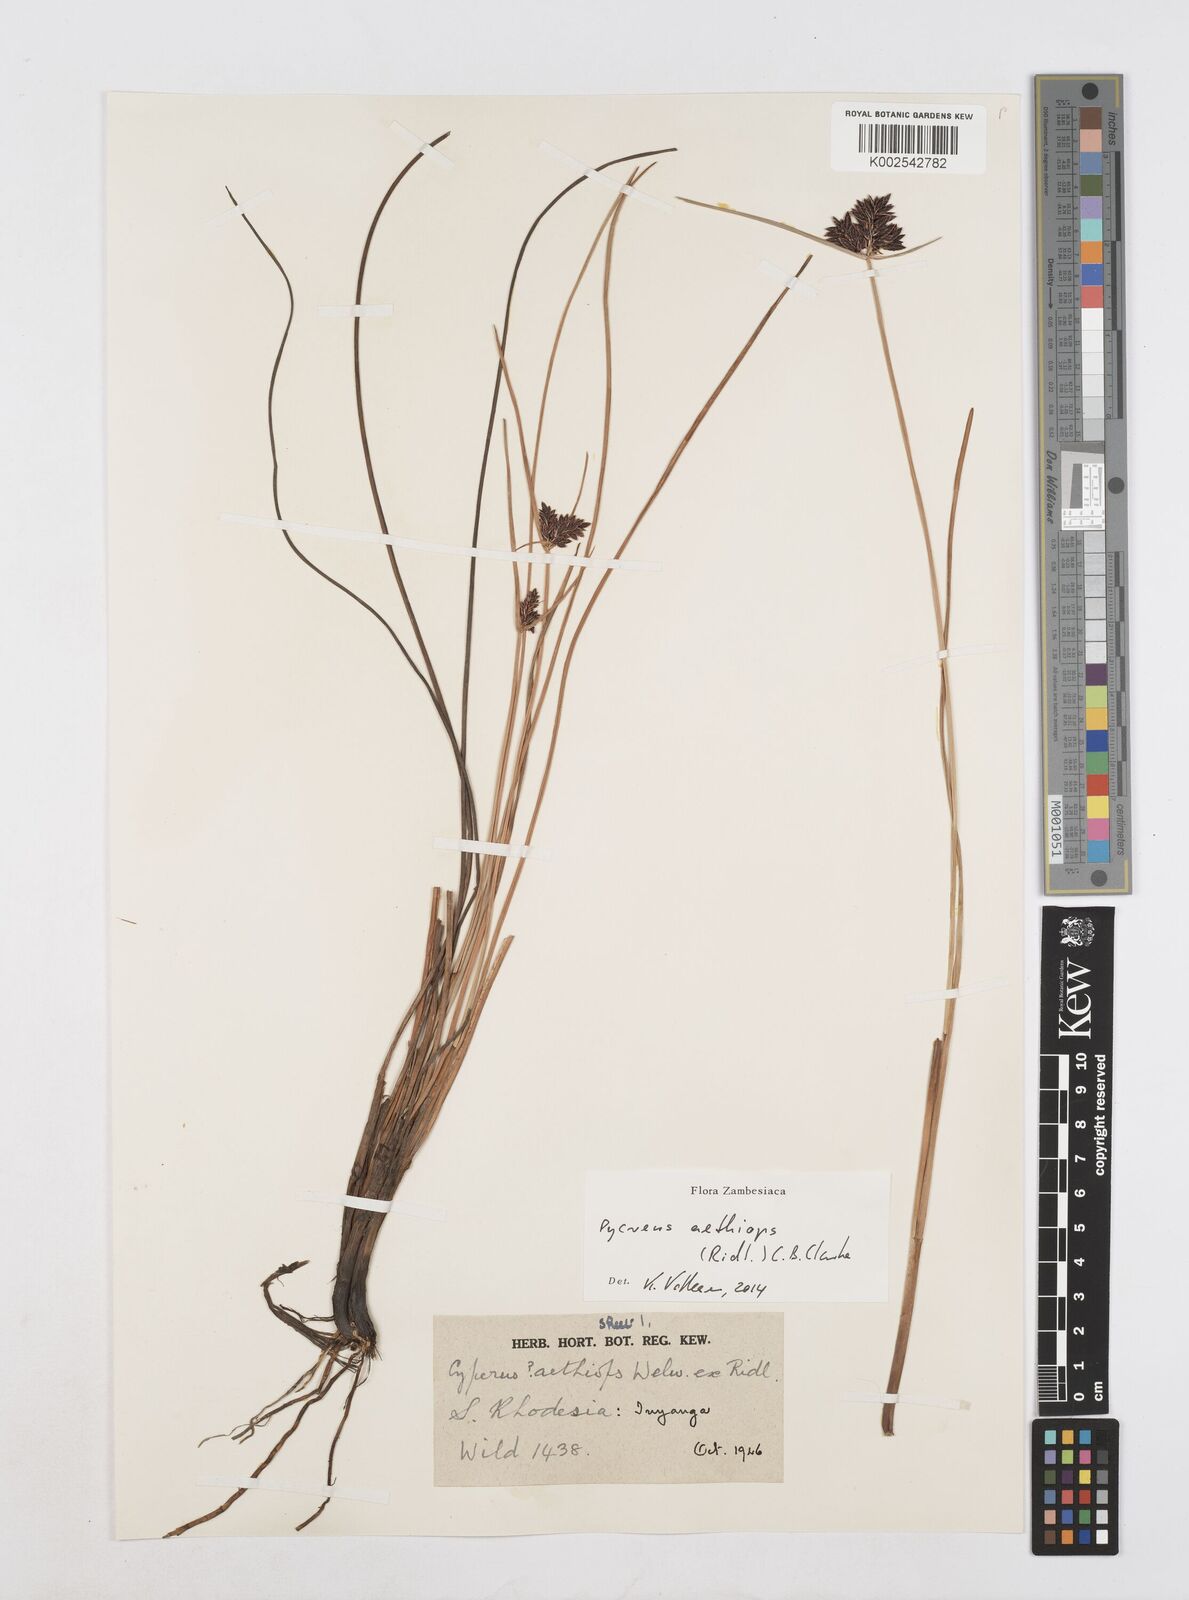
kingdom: Plantae
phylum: Tracheophyta
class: Liliopsida
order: Poales
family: Cyperaceae
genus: Cyperus
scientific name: Cyperus aethiops
